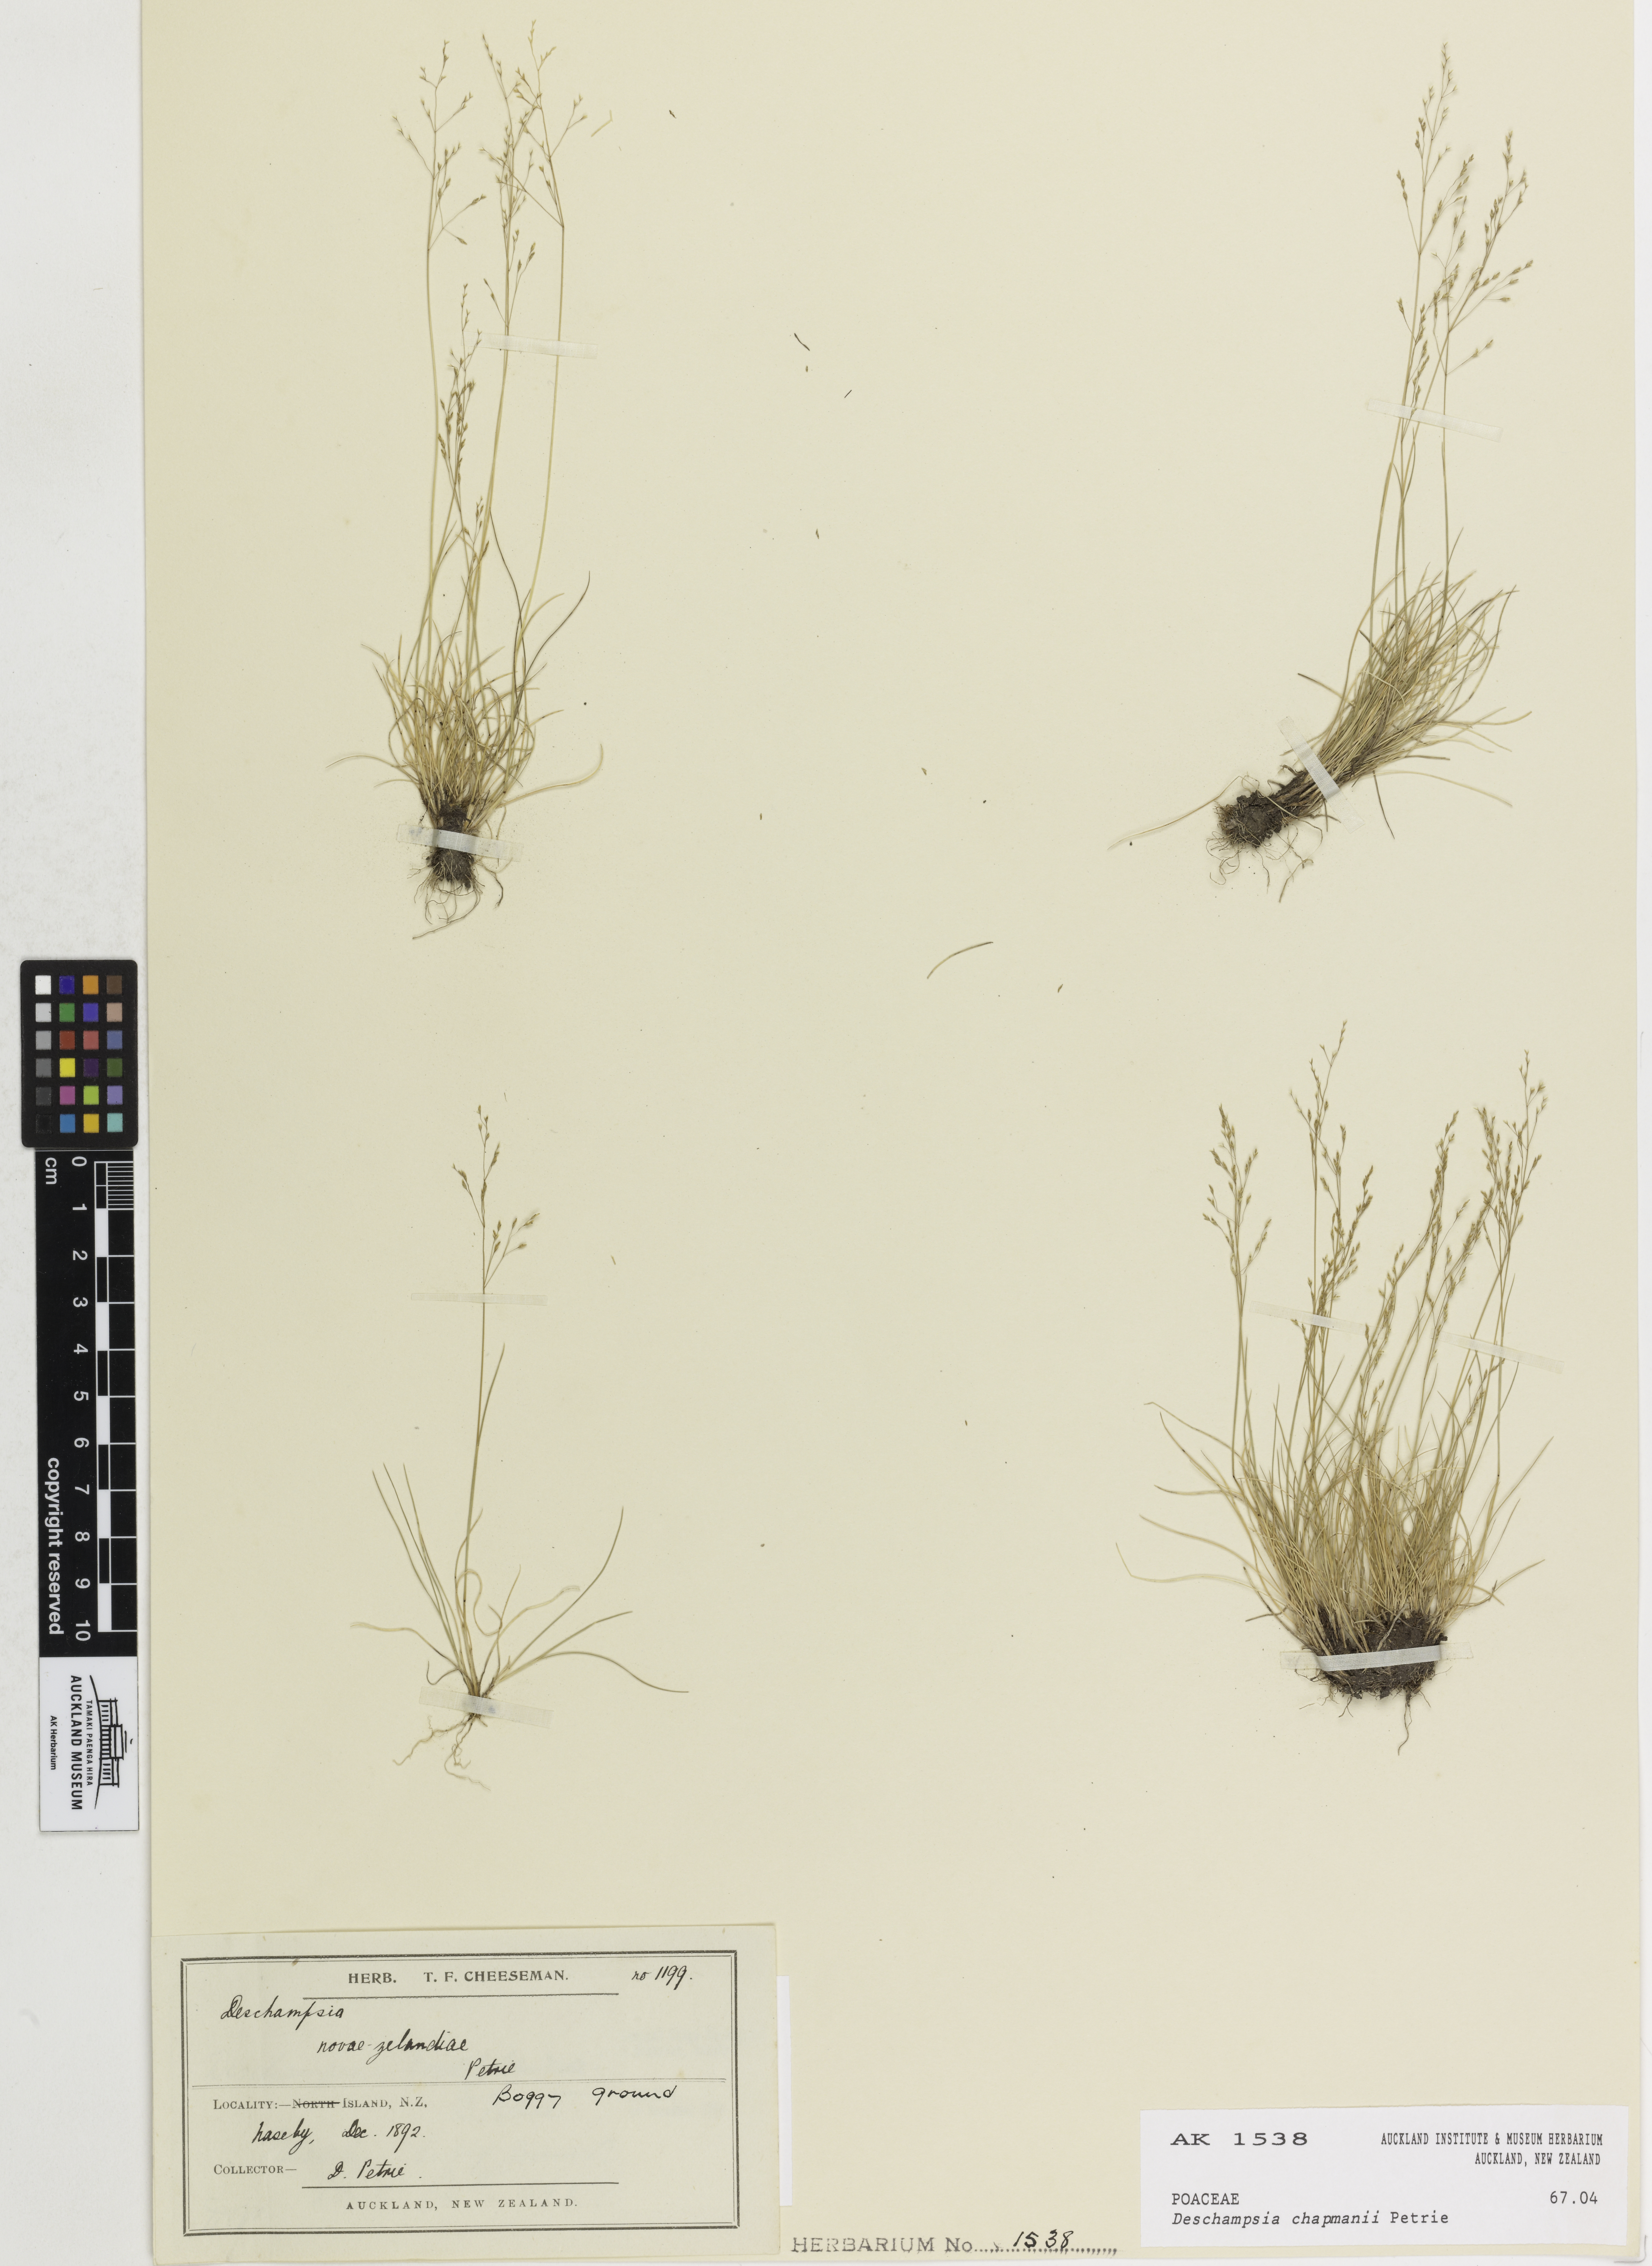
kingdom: Plantae
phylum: Tracheophyta
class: Liliopsida
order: Poales
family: Poaceae
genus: Deschampsia
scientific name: Deschampsia chapmanii
